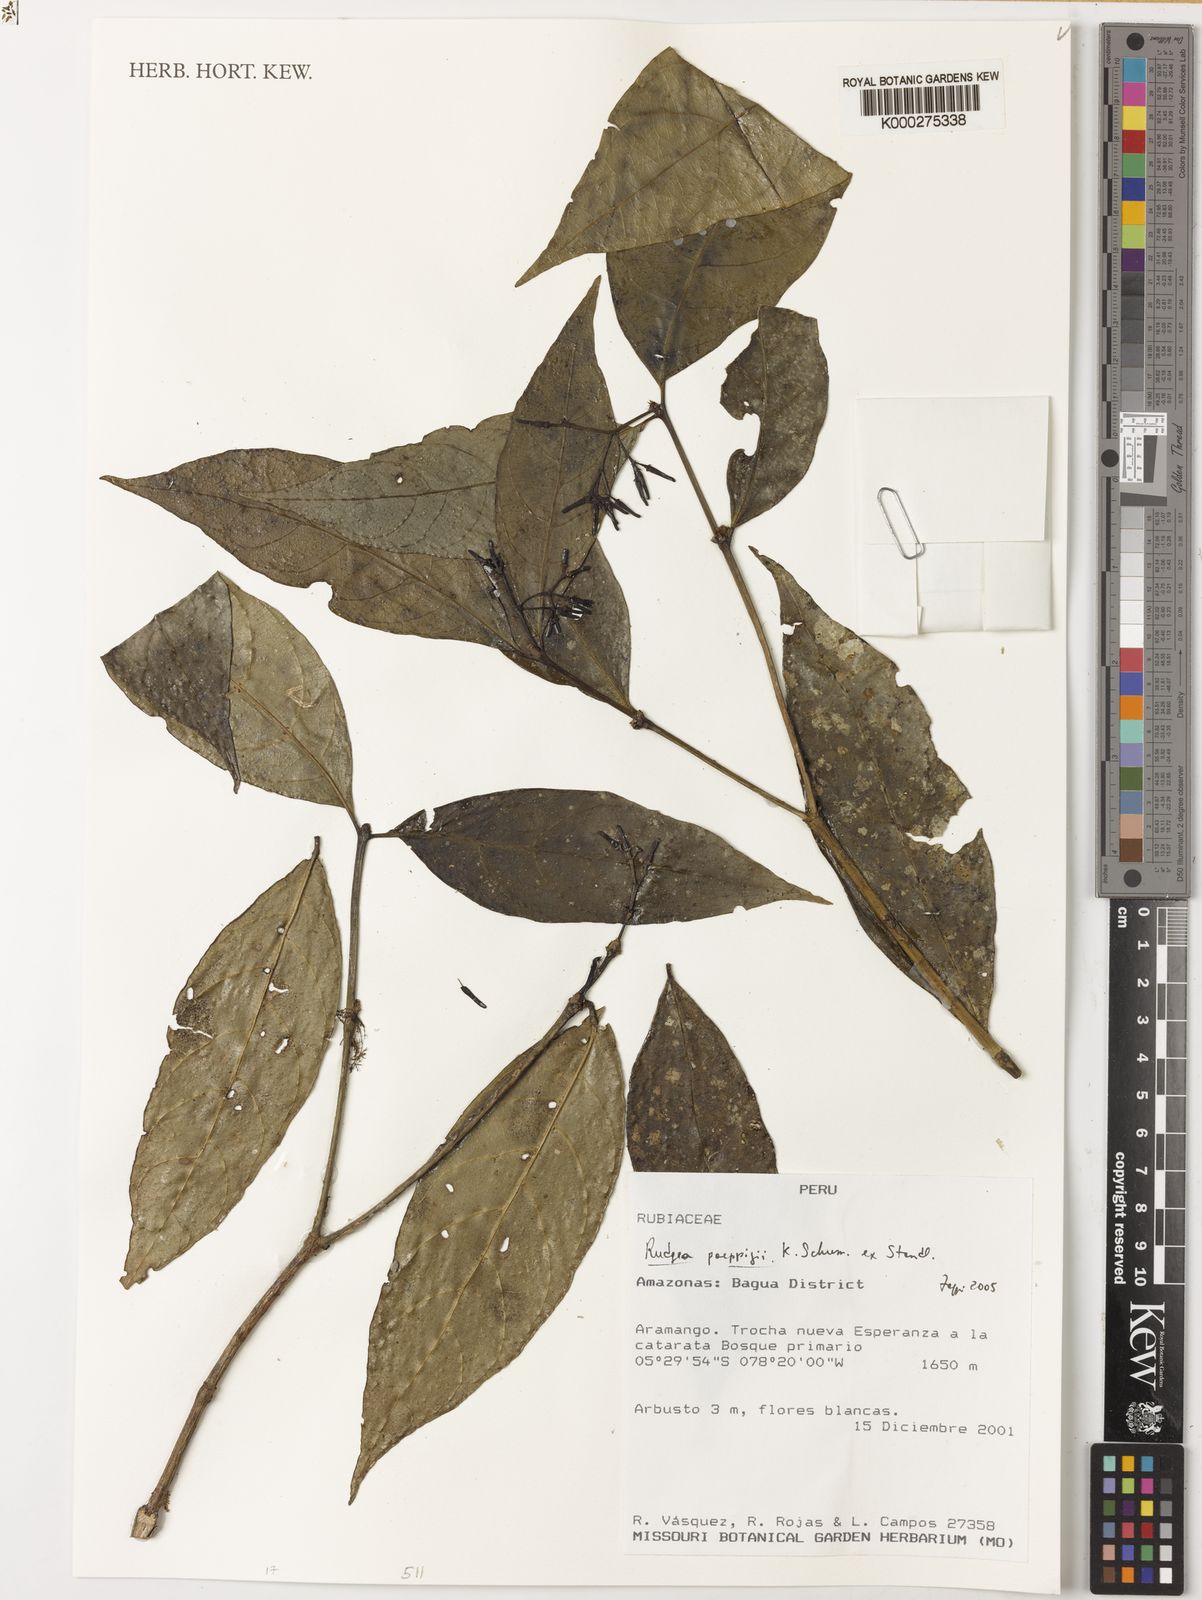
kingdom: Plantae
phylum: Tracheophyta
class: Magnoliopsida
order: Gentianales
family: Rubiaceae
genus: Rudgea
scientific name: Rudgea poeppigii
